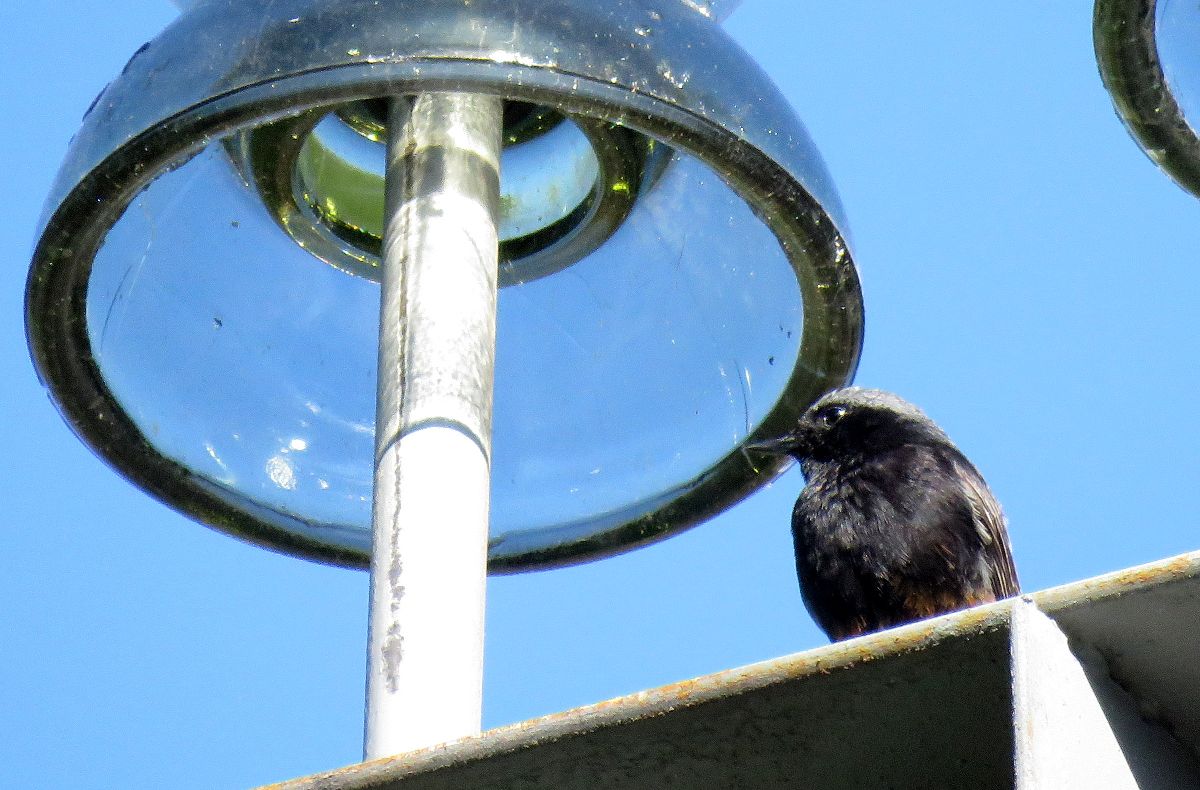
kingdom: Animalia
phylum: Chordata
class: Aves
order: Passeriformes
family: Muscicapidae
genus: Phoenicurus
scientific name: Phoenicurus ochruros
